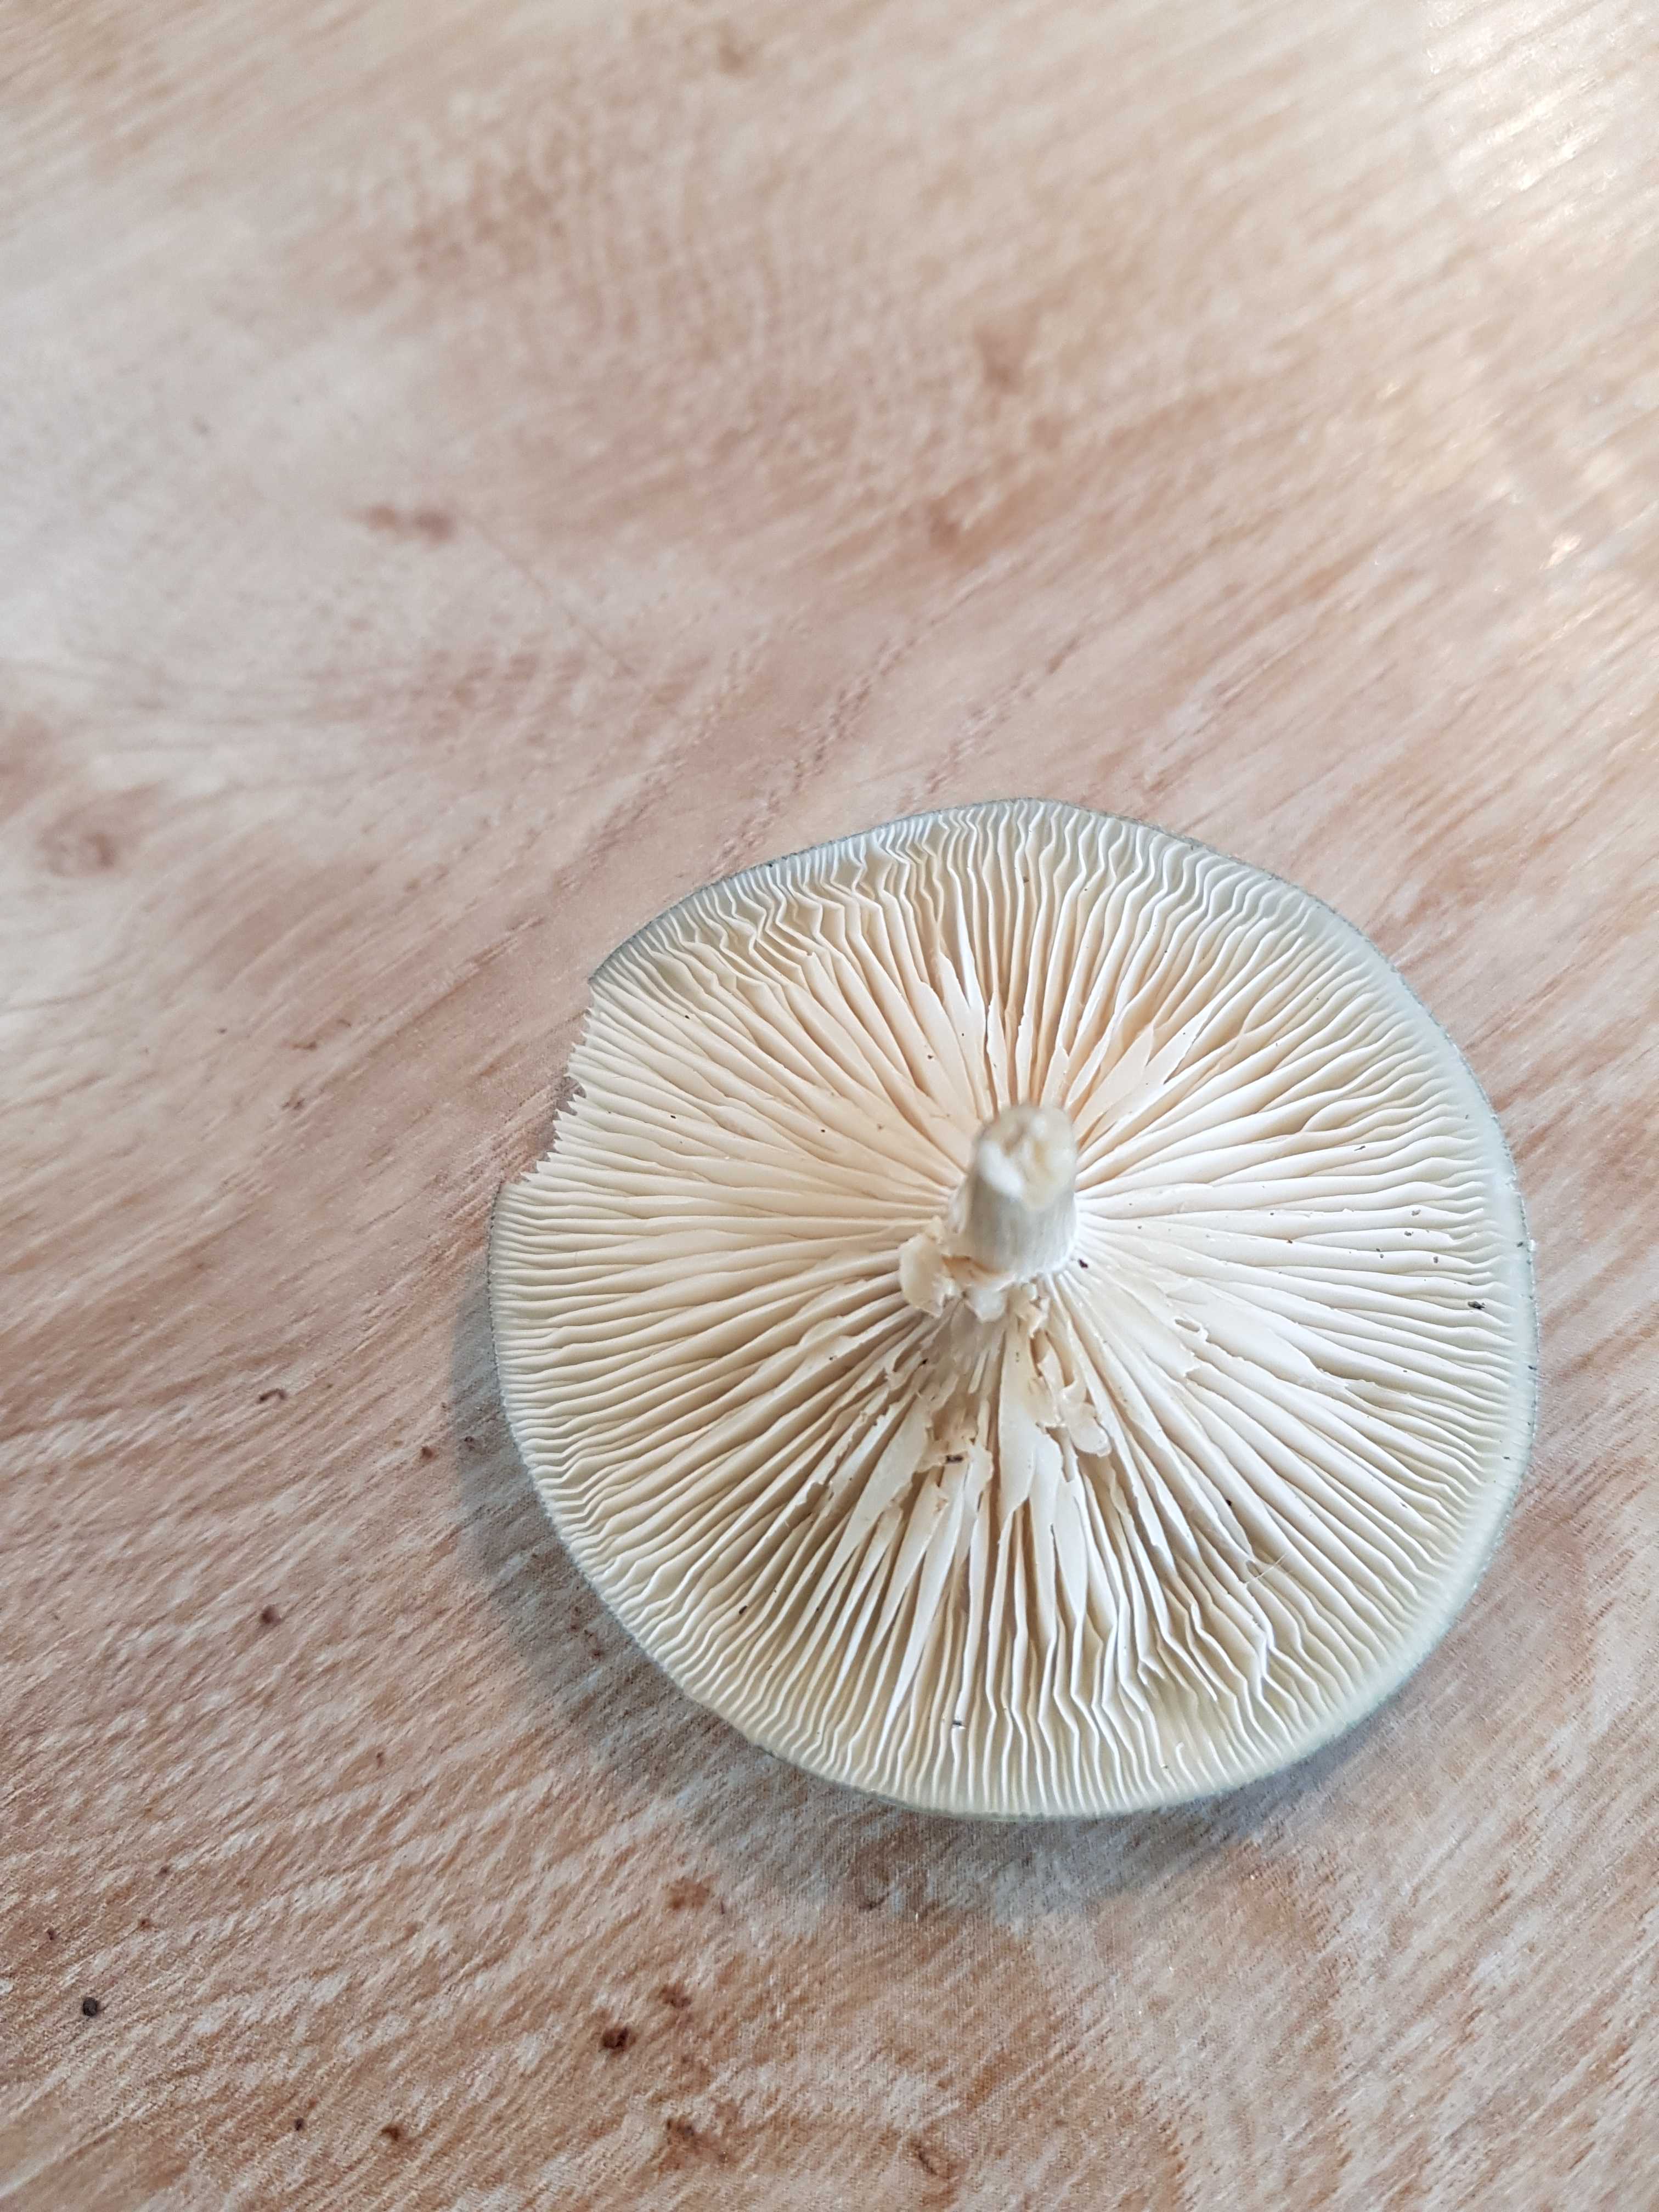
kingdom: Fungi
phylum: Basidiomycota
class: Agaricomycetes
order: Agaricales
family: Tricholomataceae
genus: Clitocybe
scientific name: Clitocybe odora
